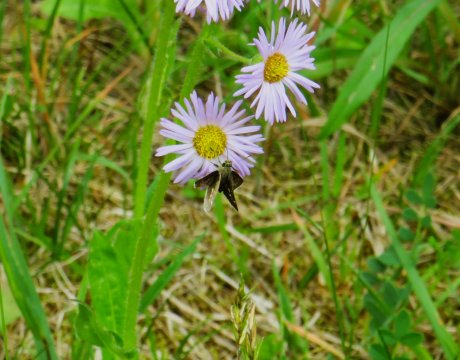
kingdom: Animalia
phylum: Arthropoda
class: Insecta
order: Lepidoptera
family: Hesperiidae
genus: Mastor
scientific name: Mastor hegon
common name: Pepper and Salt Skipper
